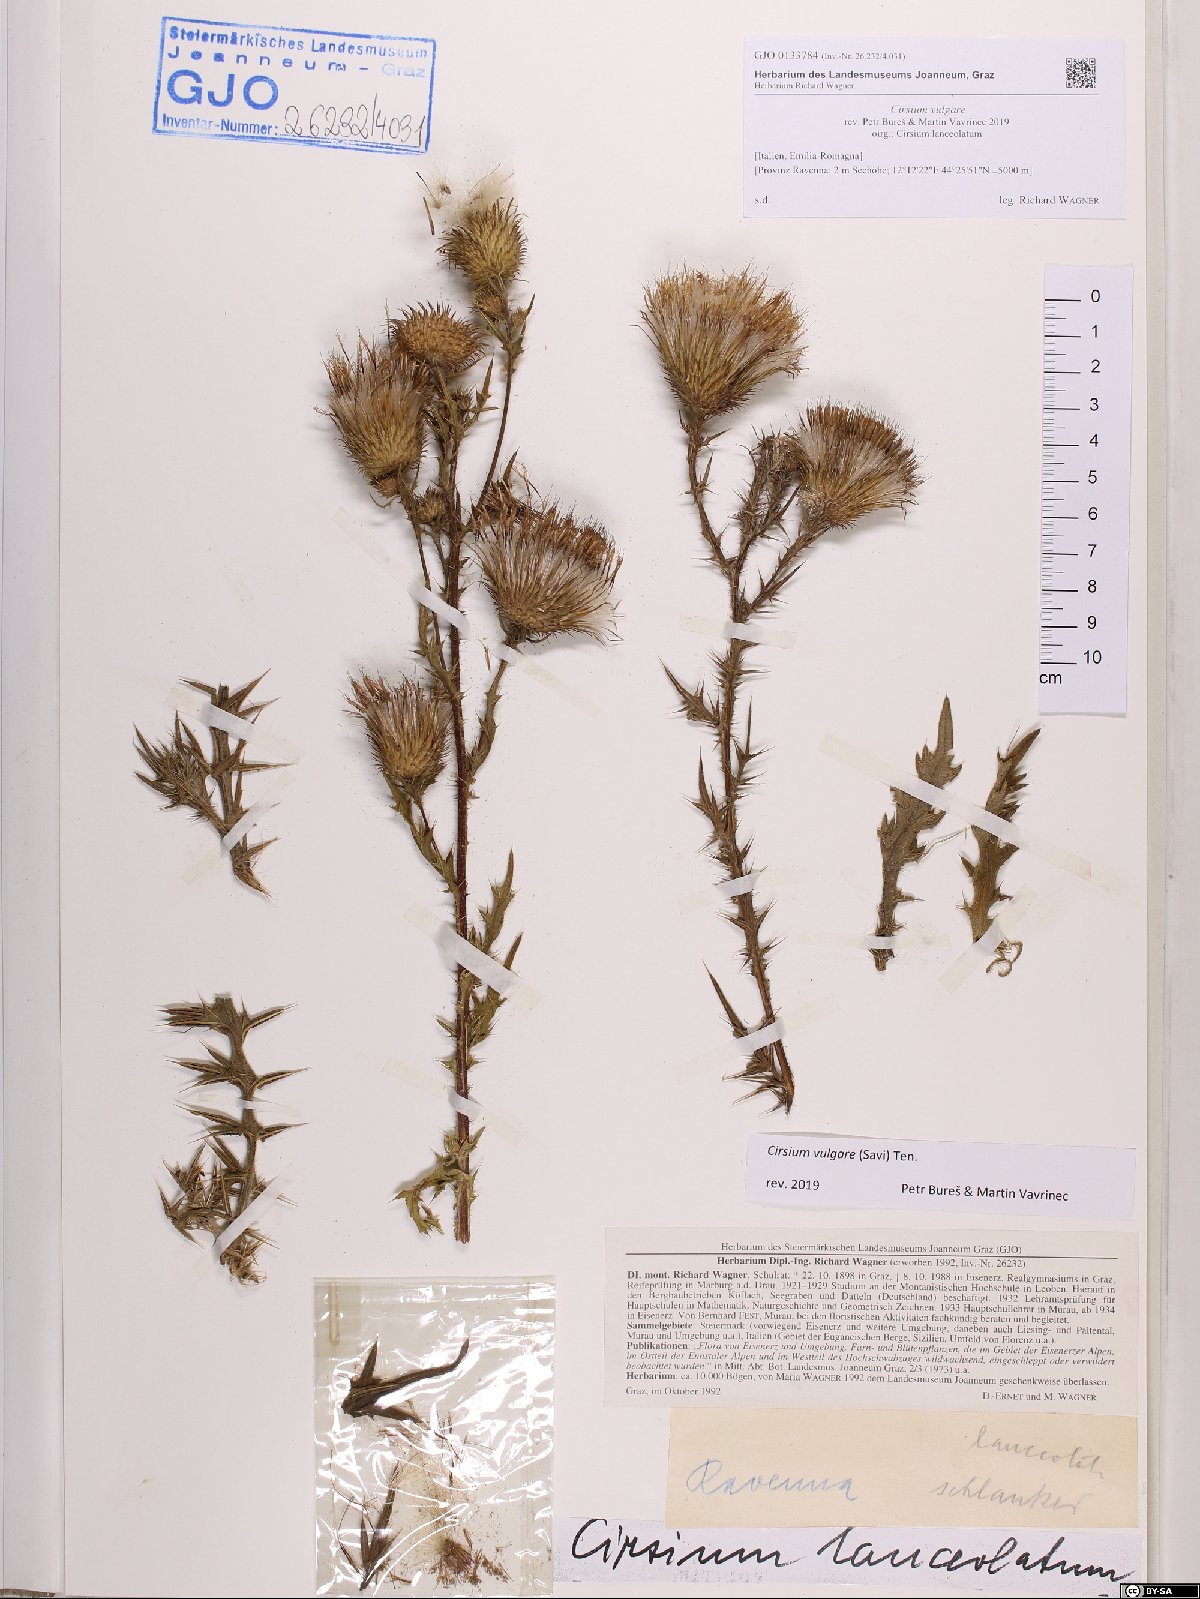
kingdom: Plantae
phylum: Tracheophyta
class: Magnoliopsida
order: Asterales
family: Asteraceae
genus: Cirsium
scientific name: Cirsium vulgare
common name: Bull thistle
